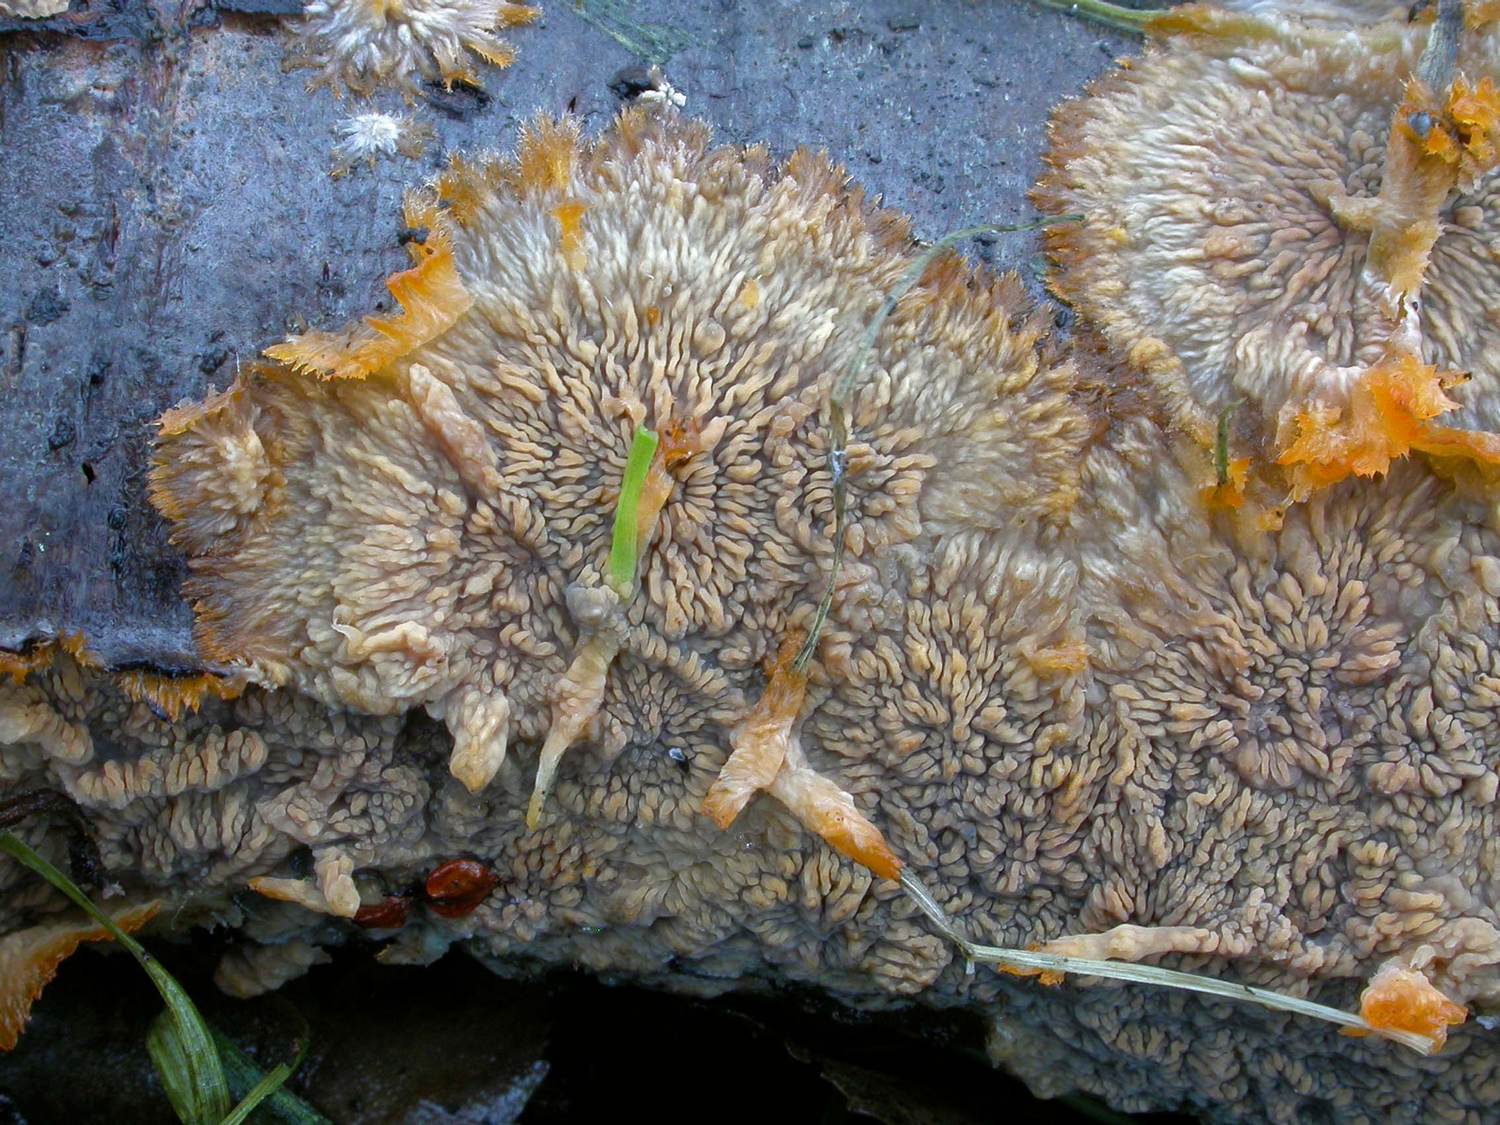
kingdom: Fungi
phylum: Basidiomycota
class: Agaricomycetes
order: Polyporales
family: Meruliaceae
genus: Phlebia
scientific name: Phlebia radiata
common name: stråle-åresvamp
